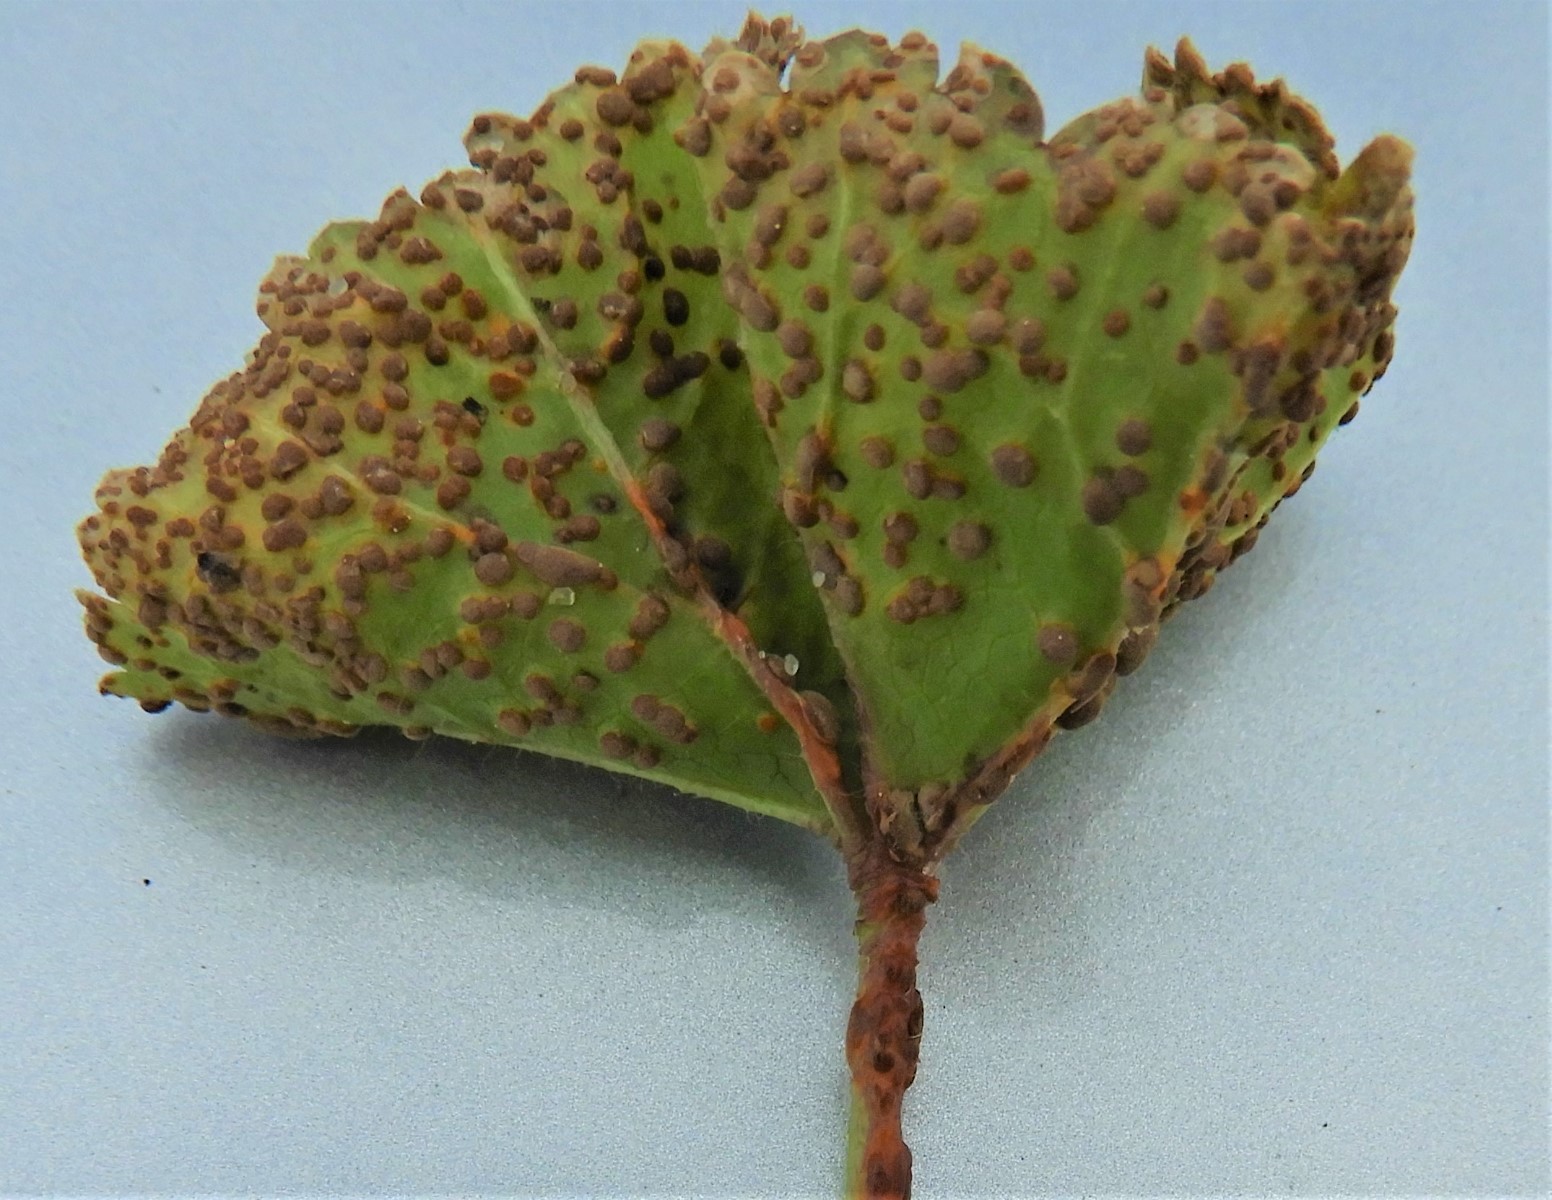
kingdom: Fungi
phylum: Basidiomycota
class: Pucciniomycetes
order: Pucciniales
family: Pucciniaceae
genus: Puccinia
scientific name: Puccinia malvacearum
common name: stokrose-tvecellerust
